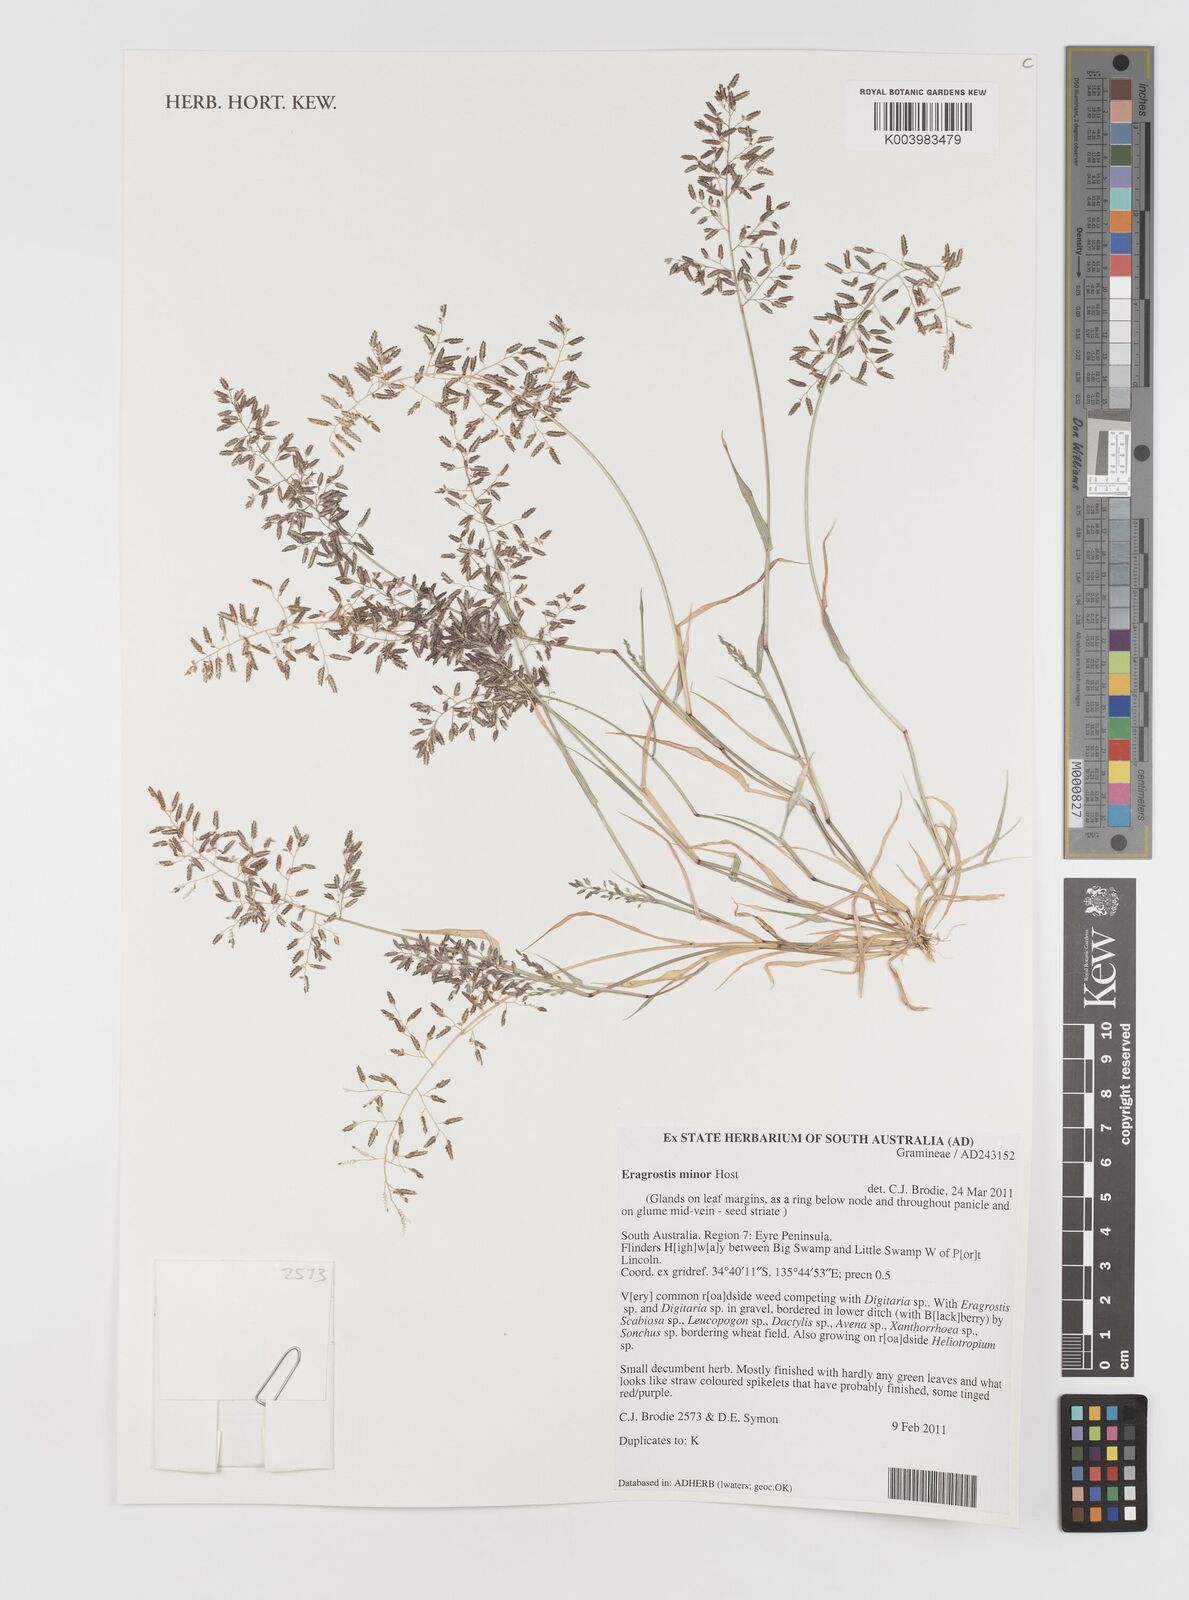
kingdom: Plantae
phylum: Tracheophyta
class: Liliopsida
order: Poales
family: Poaceae
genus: Eragrostis
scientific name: Eragrostis minor
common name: Small love-grass
